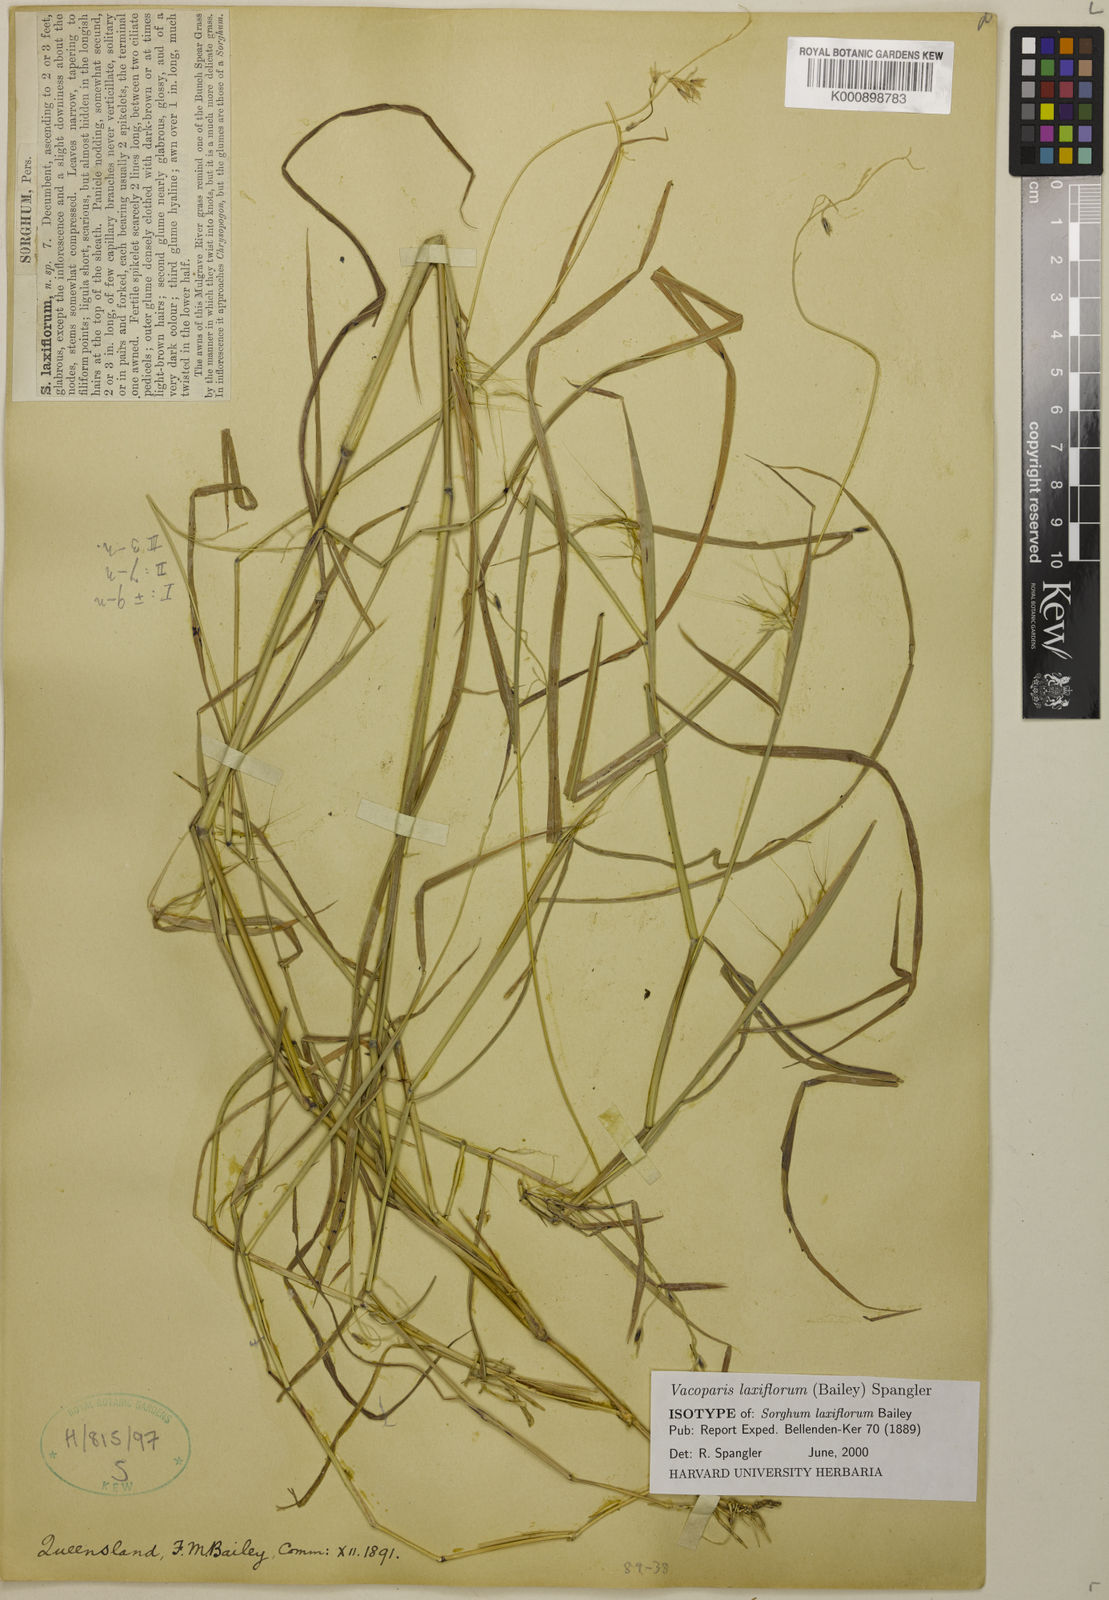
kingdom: Plantae
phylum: Tracheophyta
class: Liliopsida
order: Poales
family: Poaceae
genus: Sorghum
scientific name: Sorghum laxiflorum
